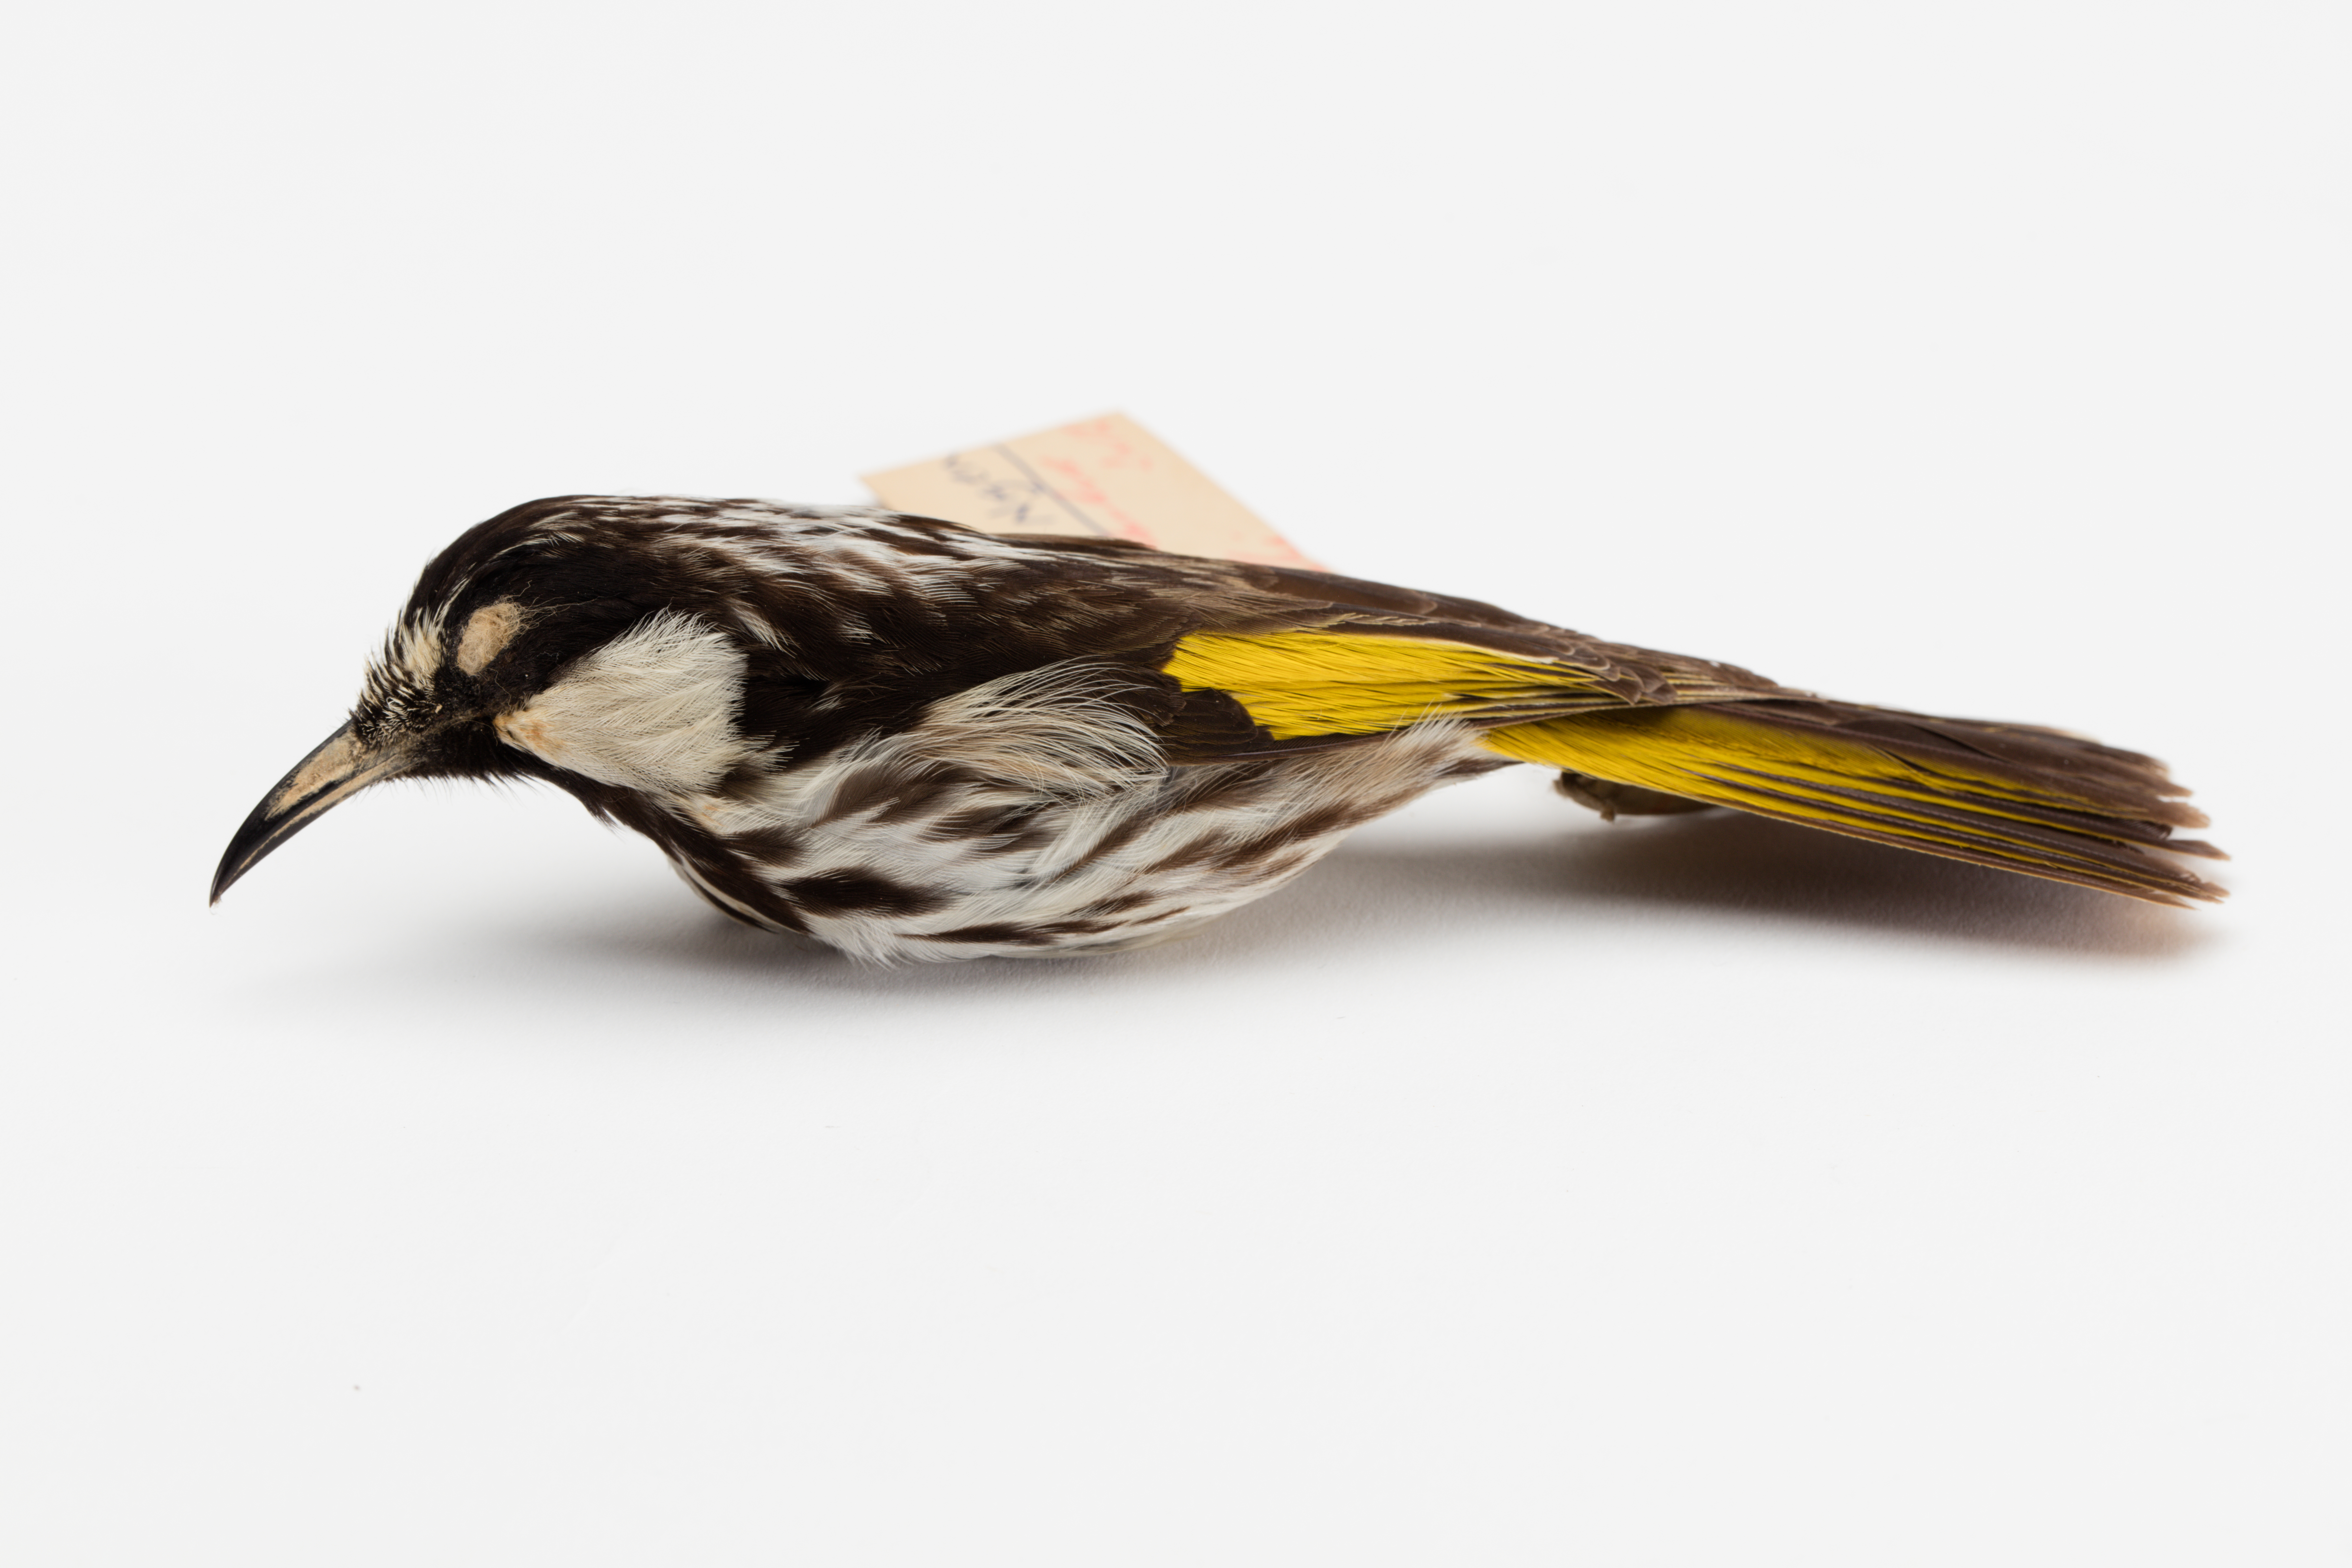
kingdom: Animalia
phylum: Chordata
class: Aves
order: Passeriformes
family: Meliphagidae
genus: Phylidonyris
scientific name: Phylidonyris niger
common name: White-cheeked honeyeater
